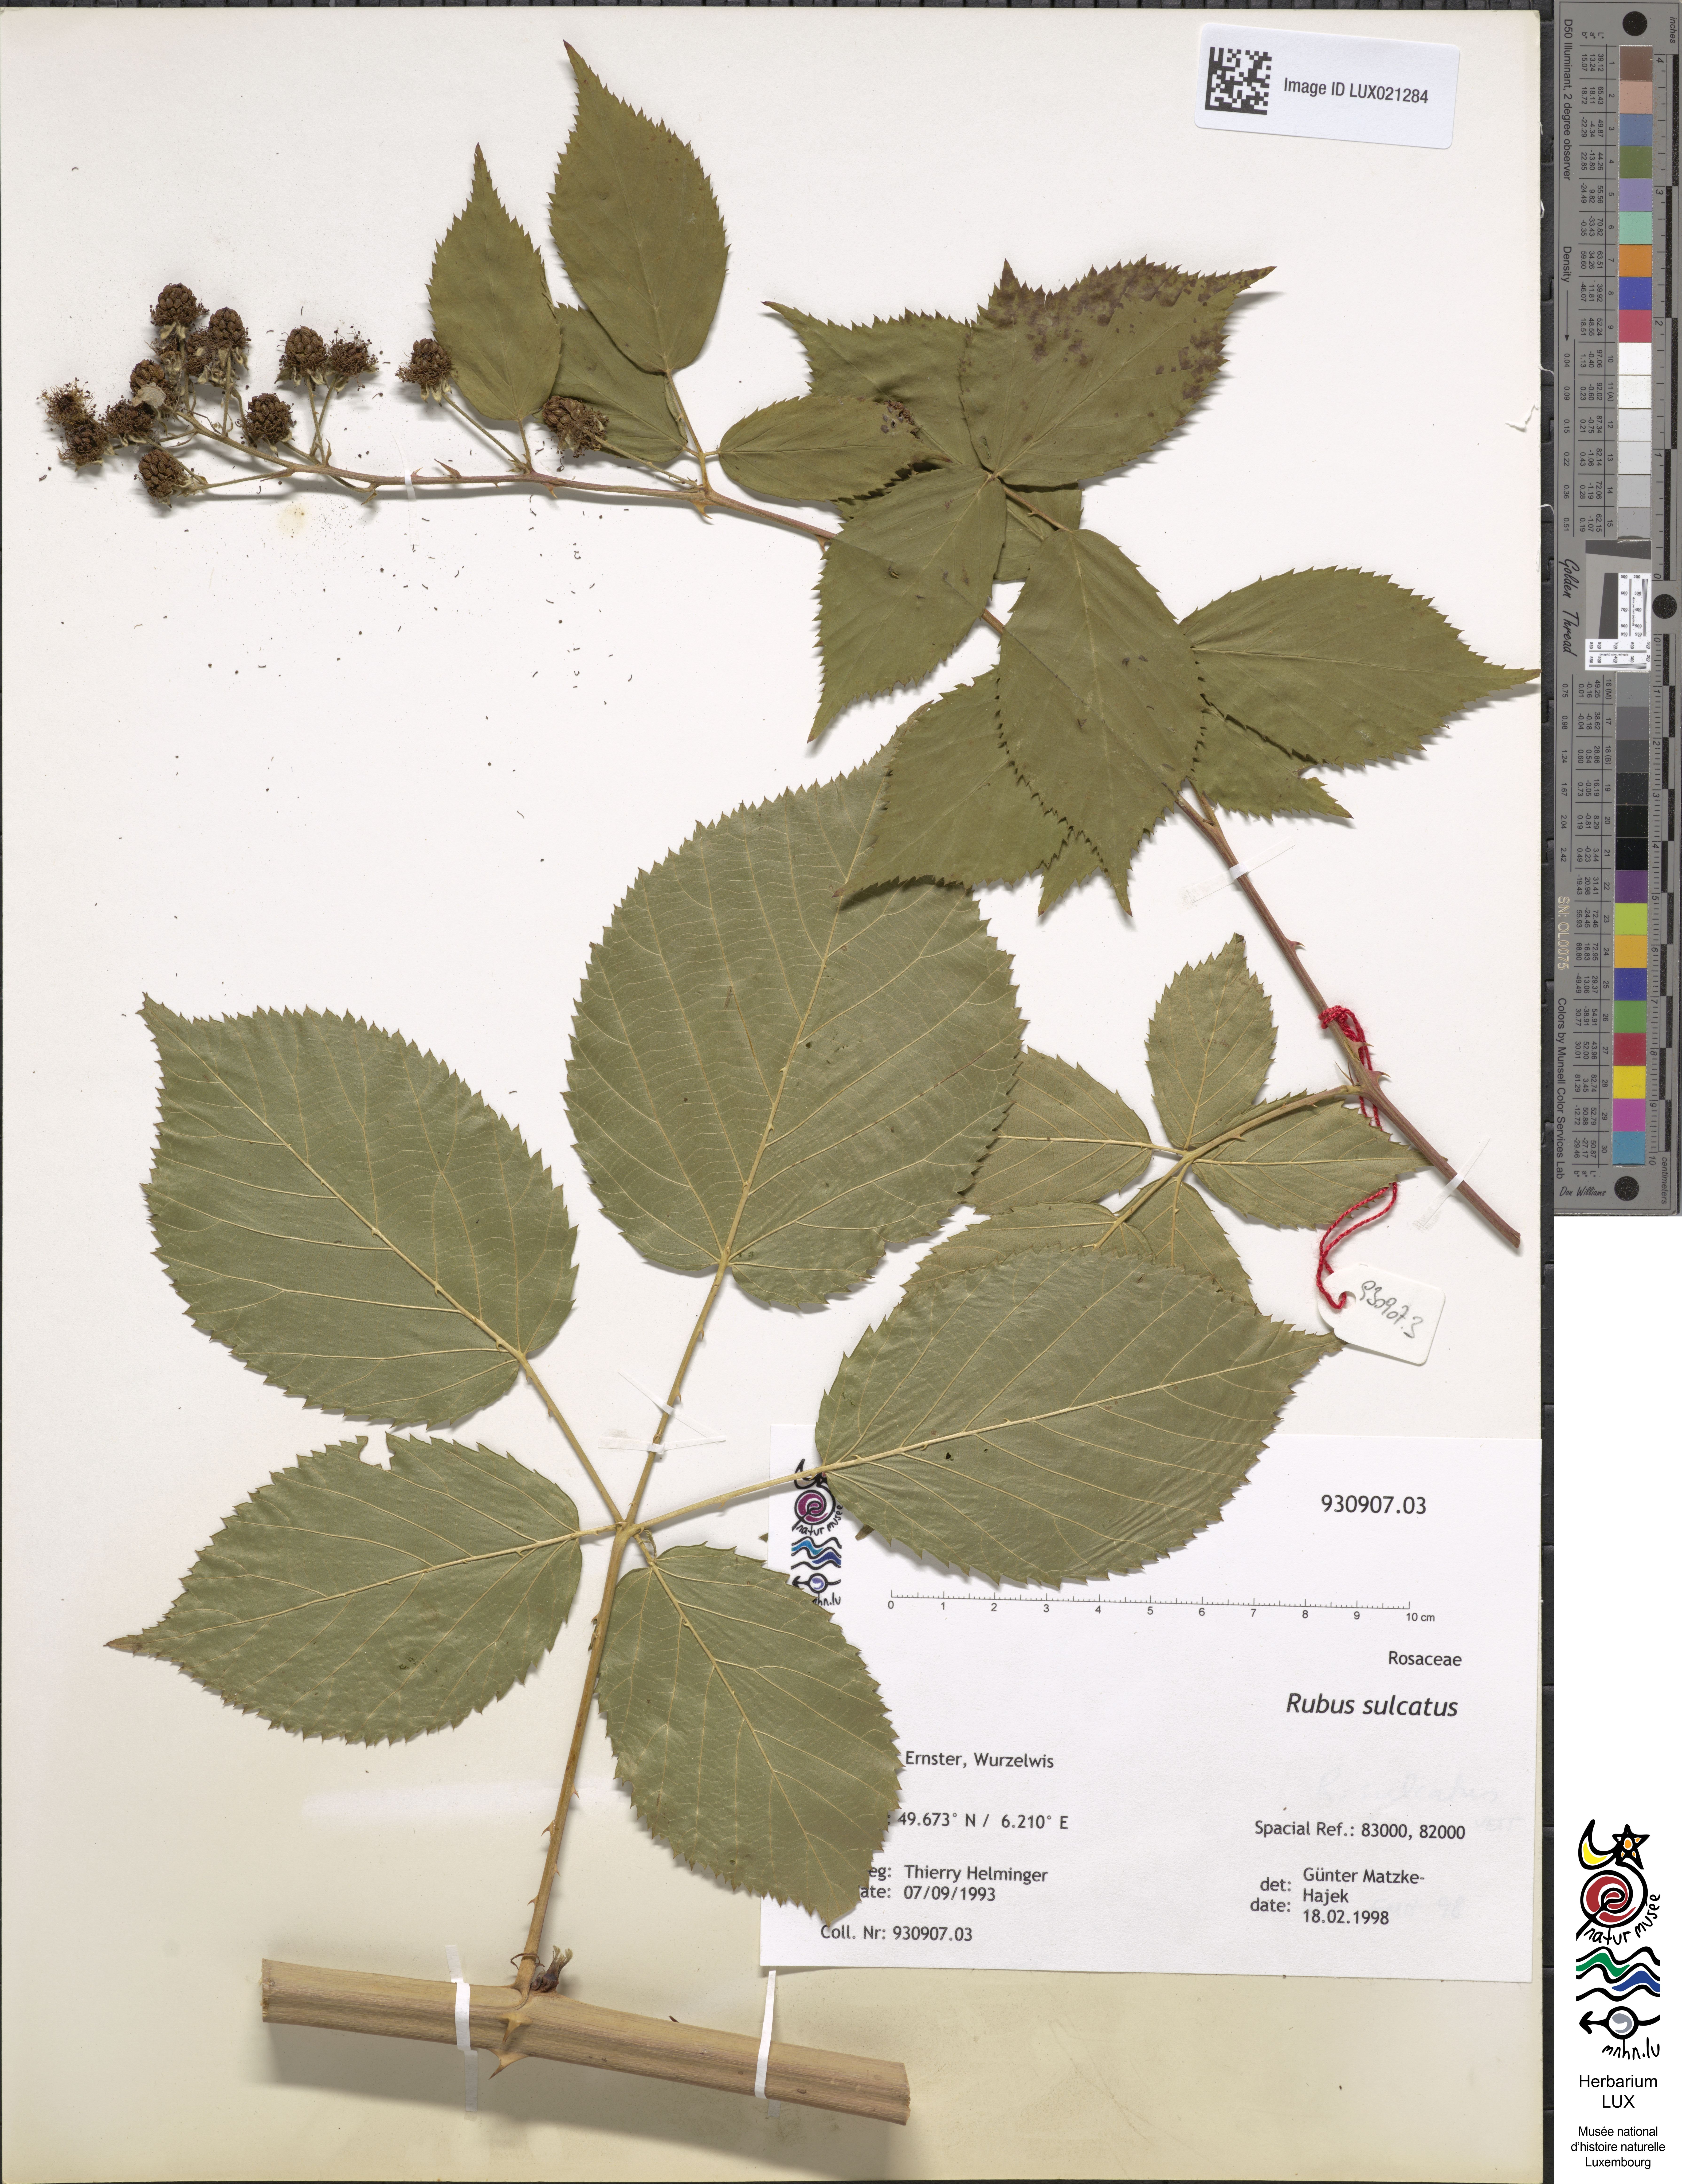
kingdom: Plantae
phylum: Tracheophyta
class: Magnoliopsida
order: Rosales
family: Rosaceae
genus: Rubus
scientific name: Rubus sulcatus
